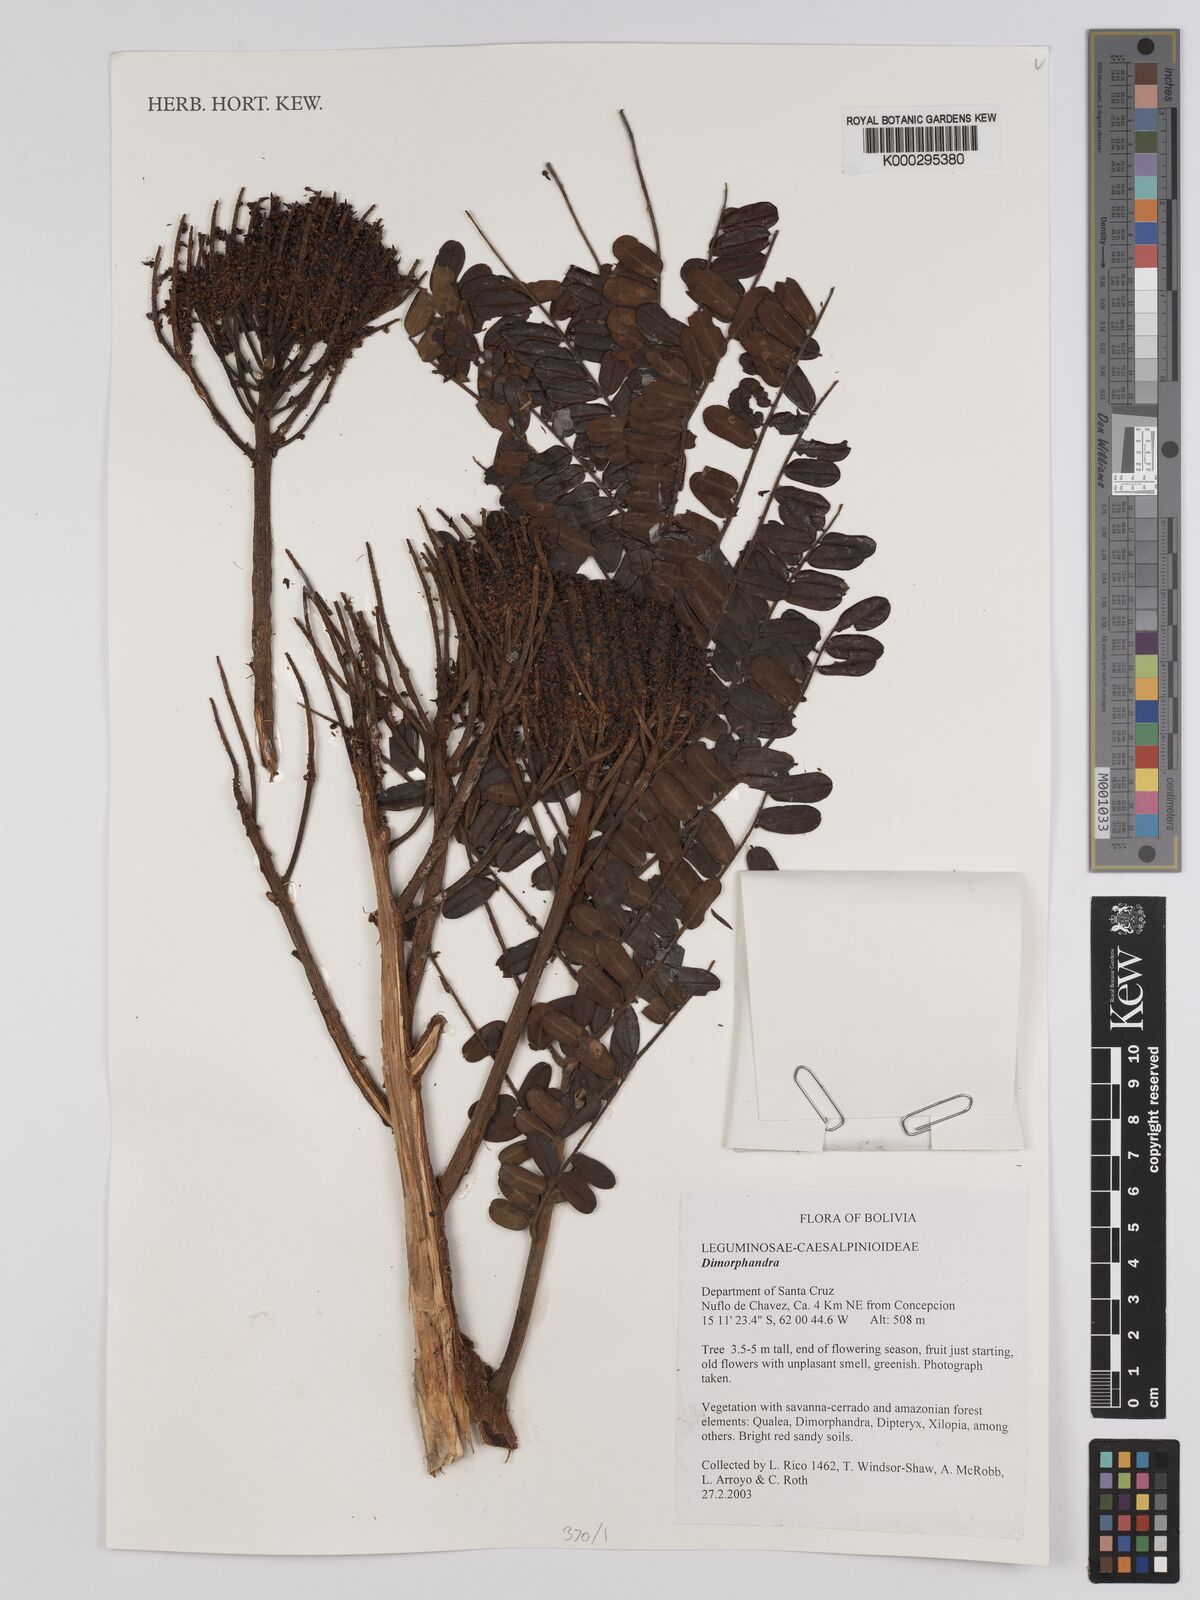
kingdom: Plantae
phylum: Tracheophyta
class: Magnoliopsida
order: Fabales
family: Fabaceae
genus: Dimorphandra
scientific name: Dimorphandra
